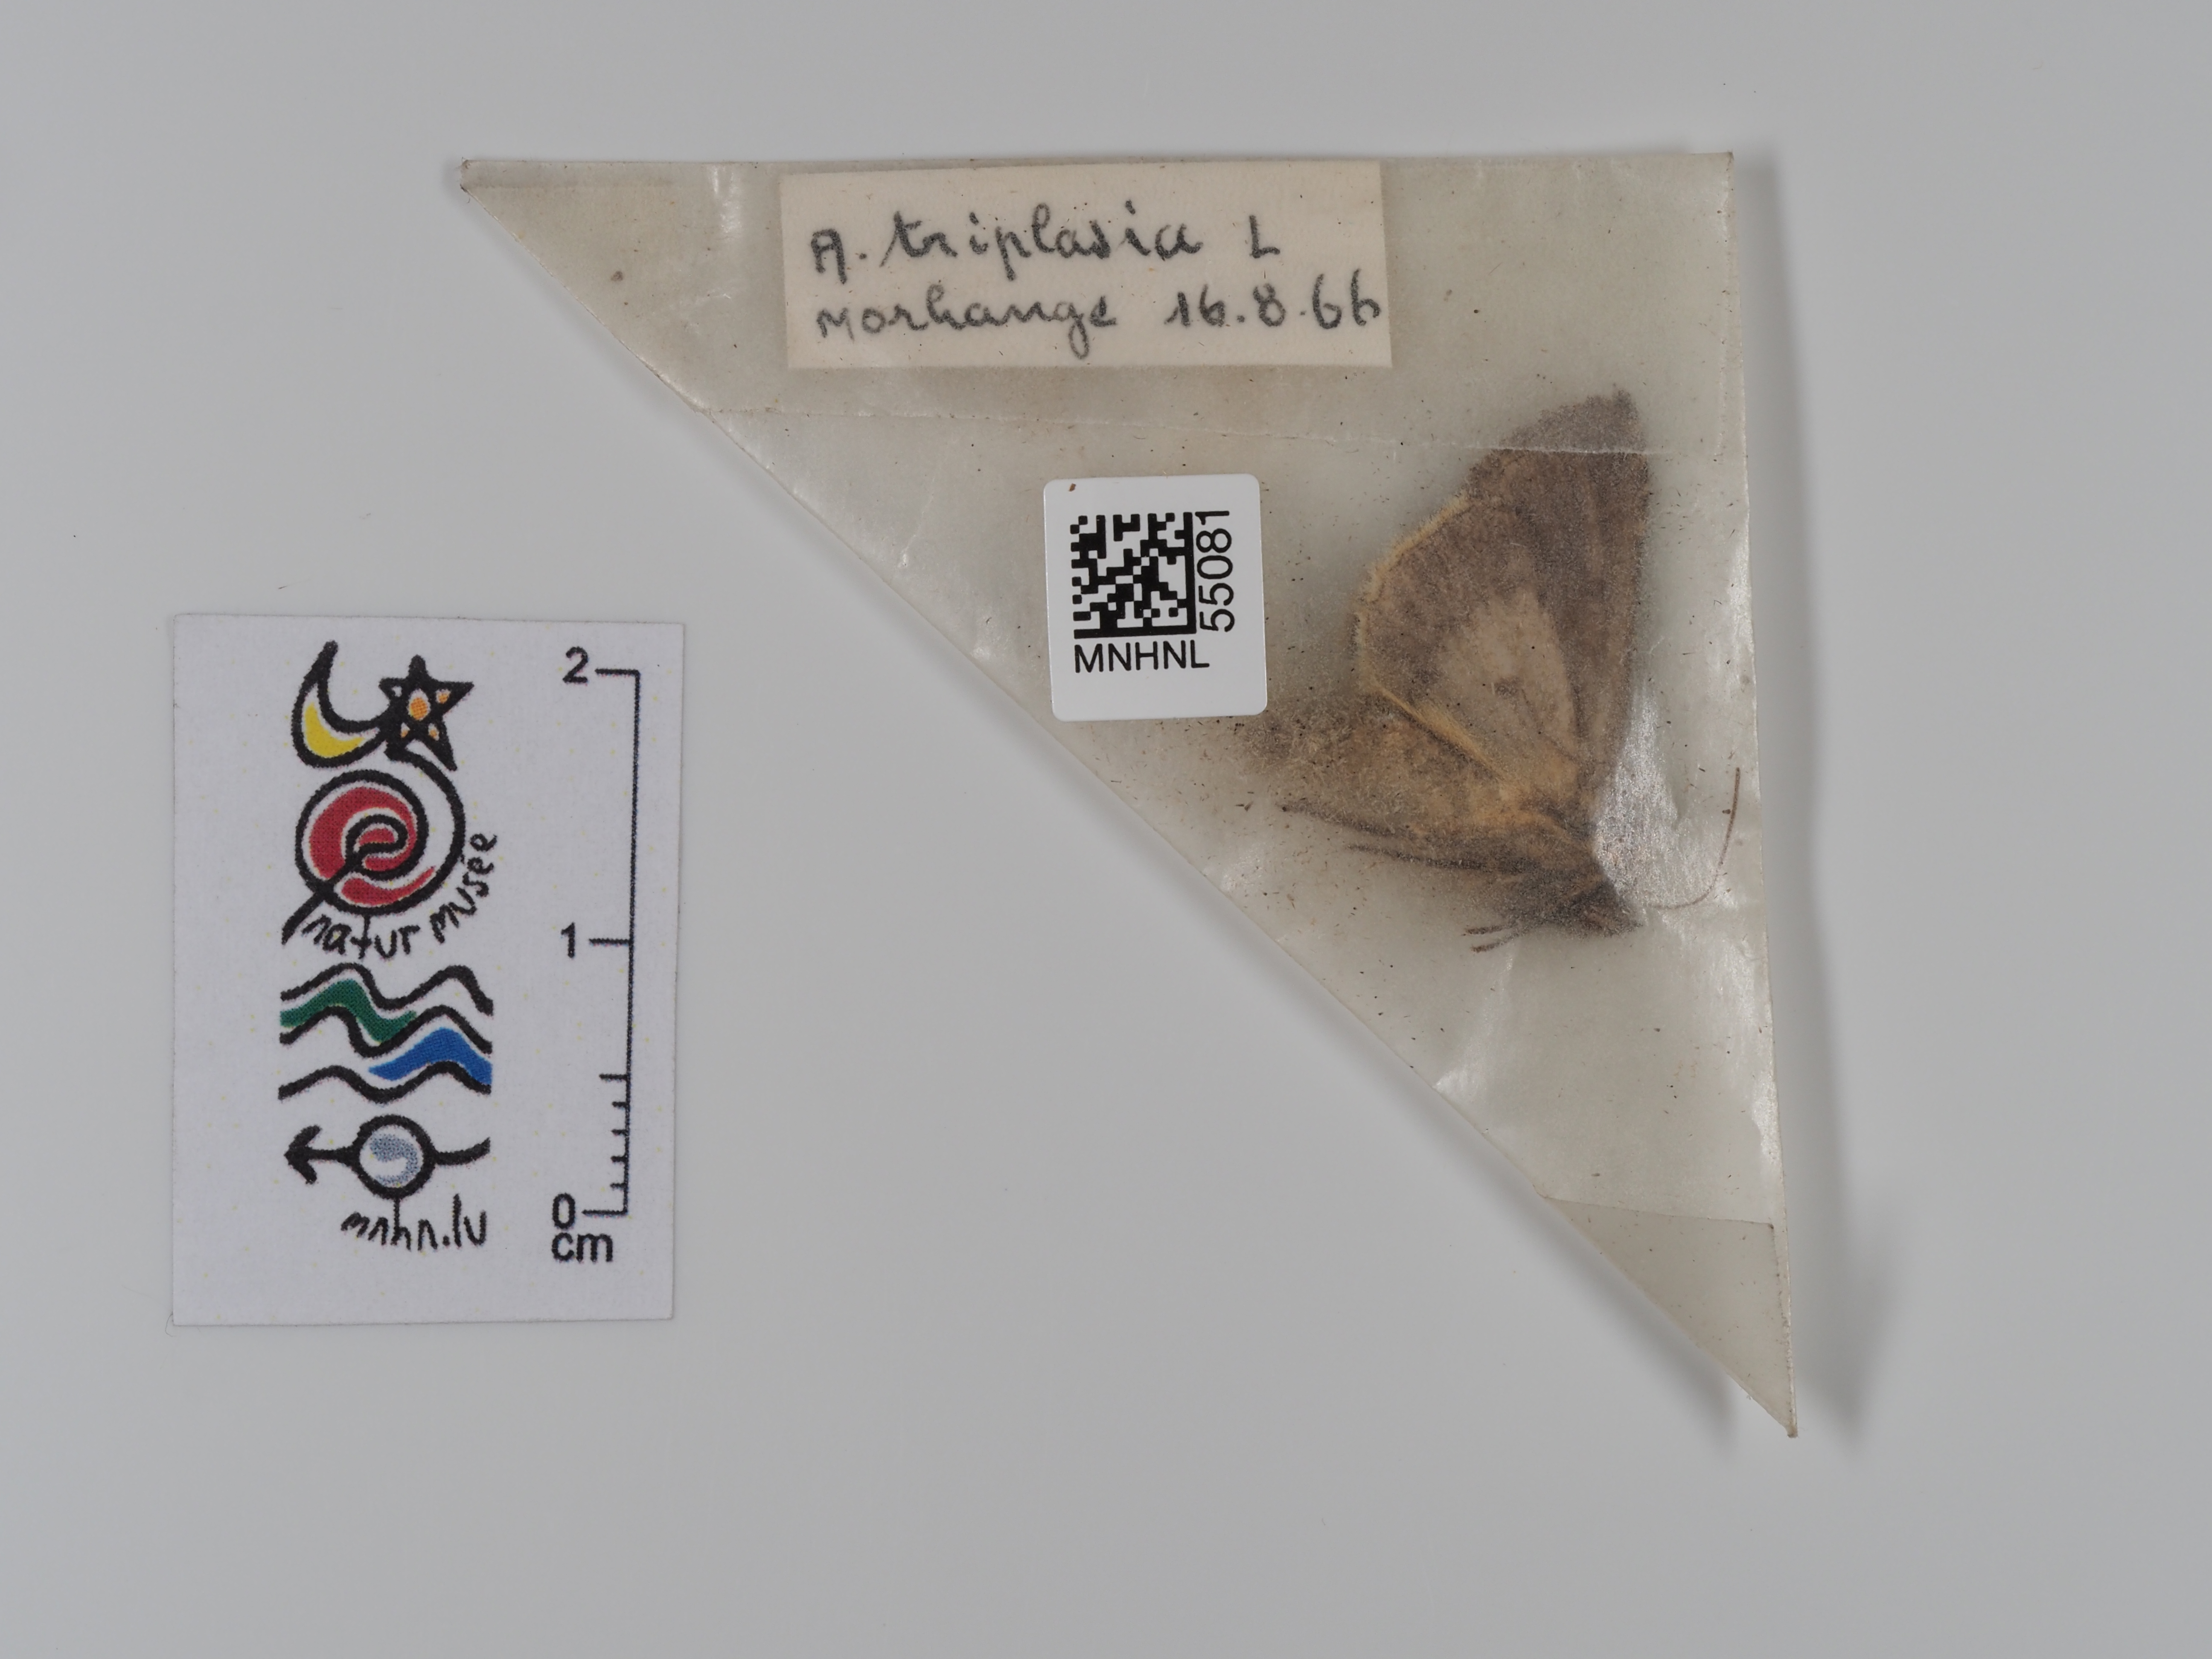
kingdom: Animalia
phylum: Arthropoda
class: Insecta
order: Lepidoptera
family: Noctuidae
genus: Abrostola
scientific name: Abrostola triplasia
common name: Dark spectacle
